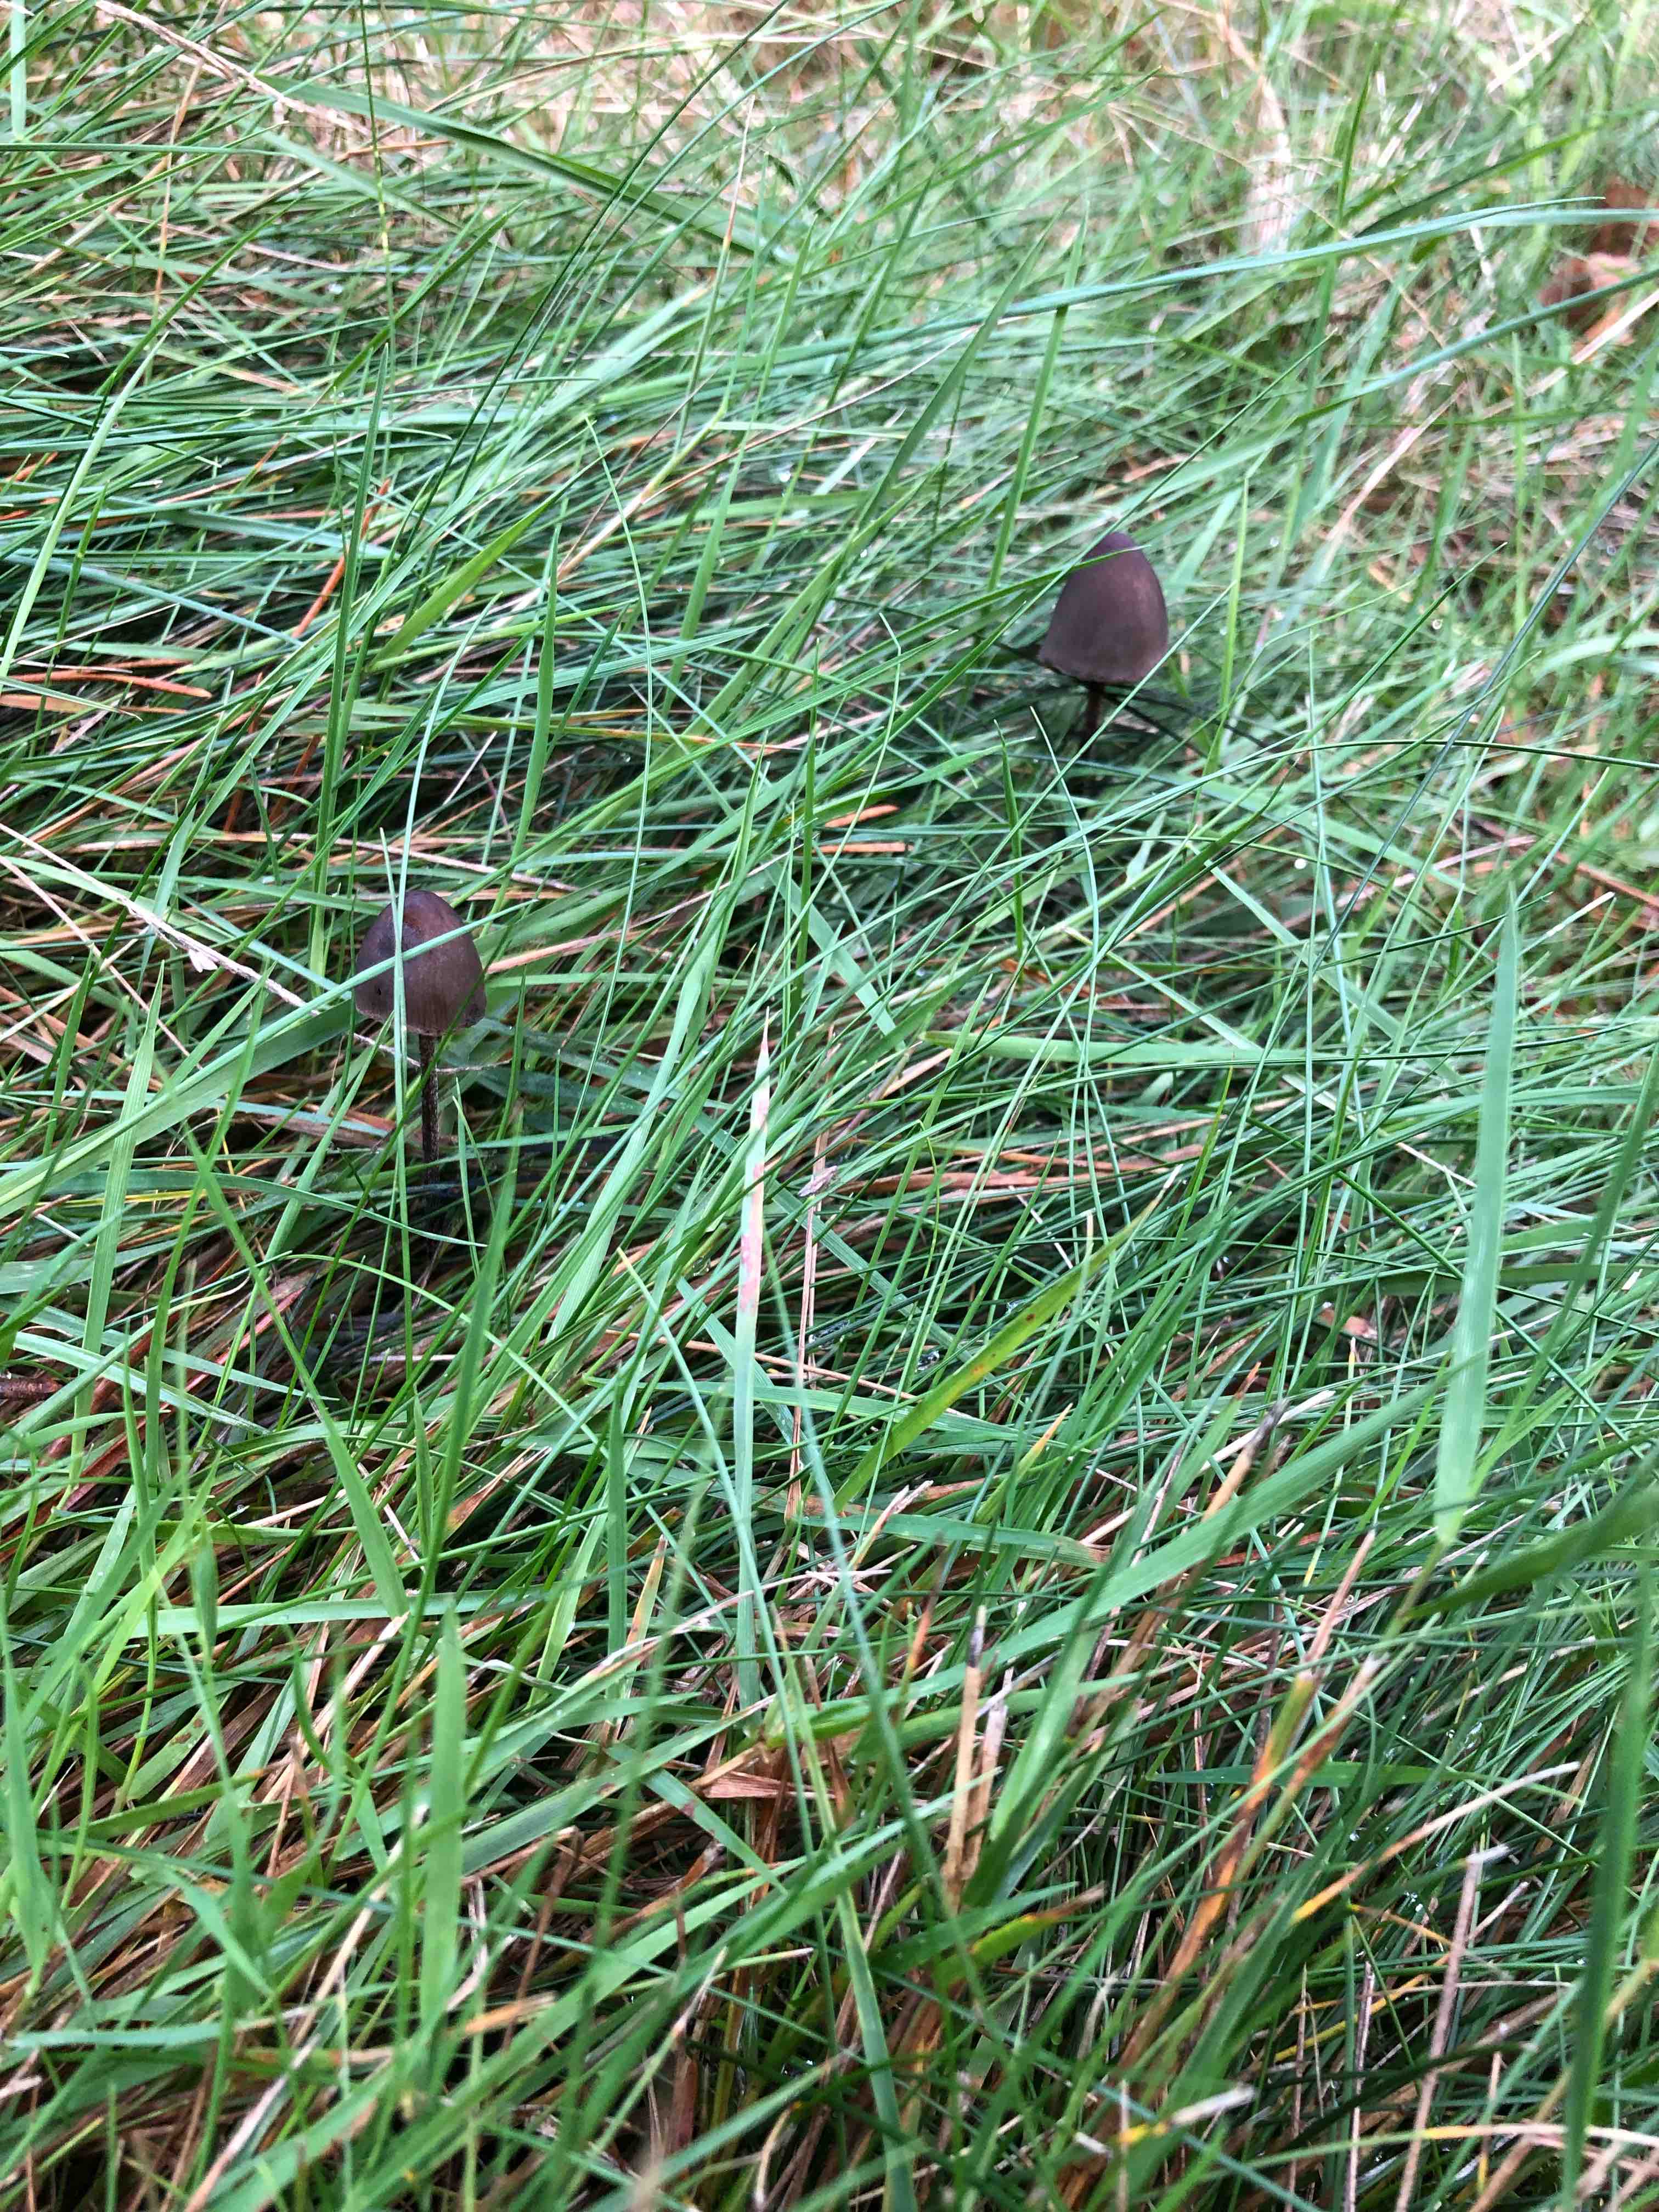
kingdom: Fungi
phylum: Basidiomycota
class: Agaricomycetes
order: Agaricales
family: Bolbitiaceae
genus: Panaeolus
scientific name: Panaeolus acuminatus
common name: høj glanshat
